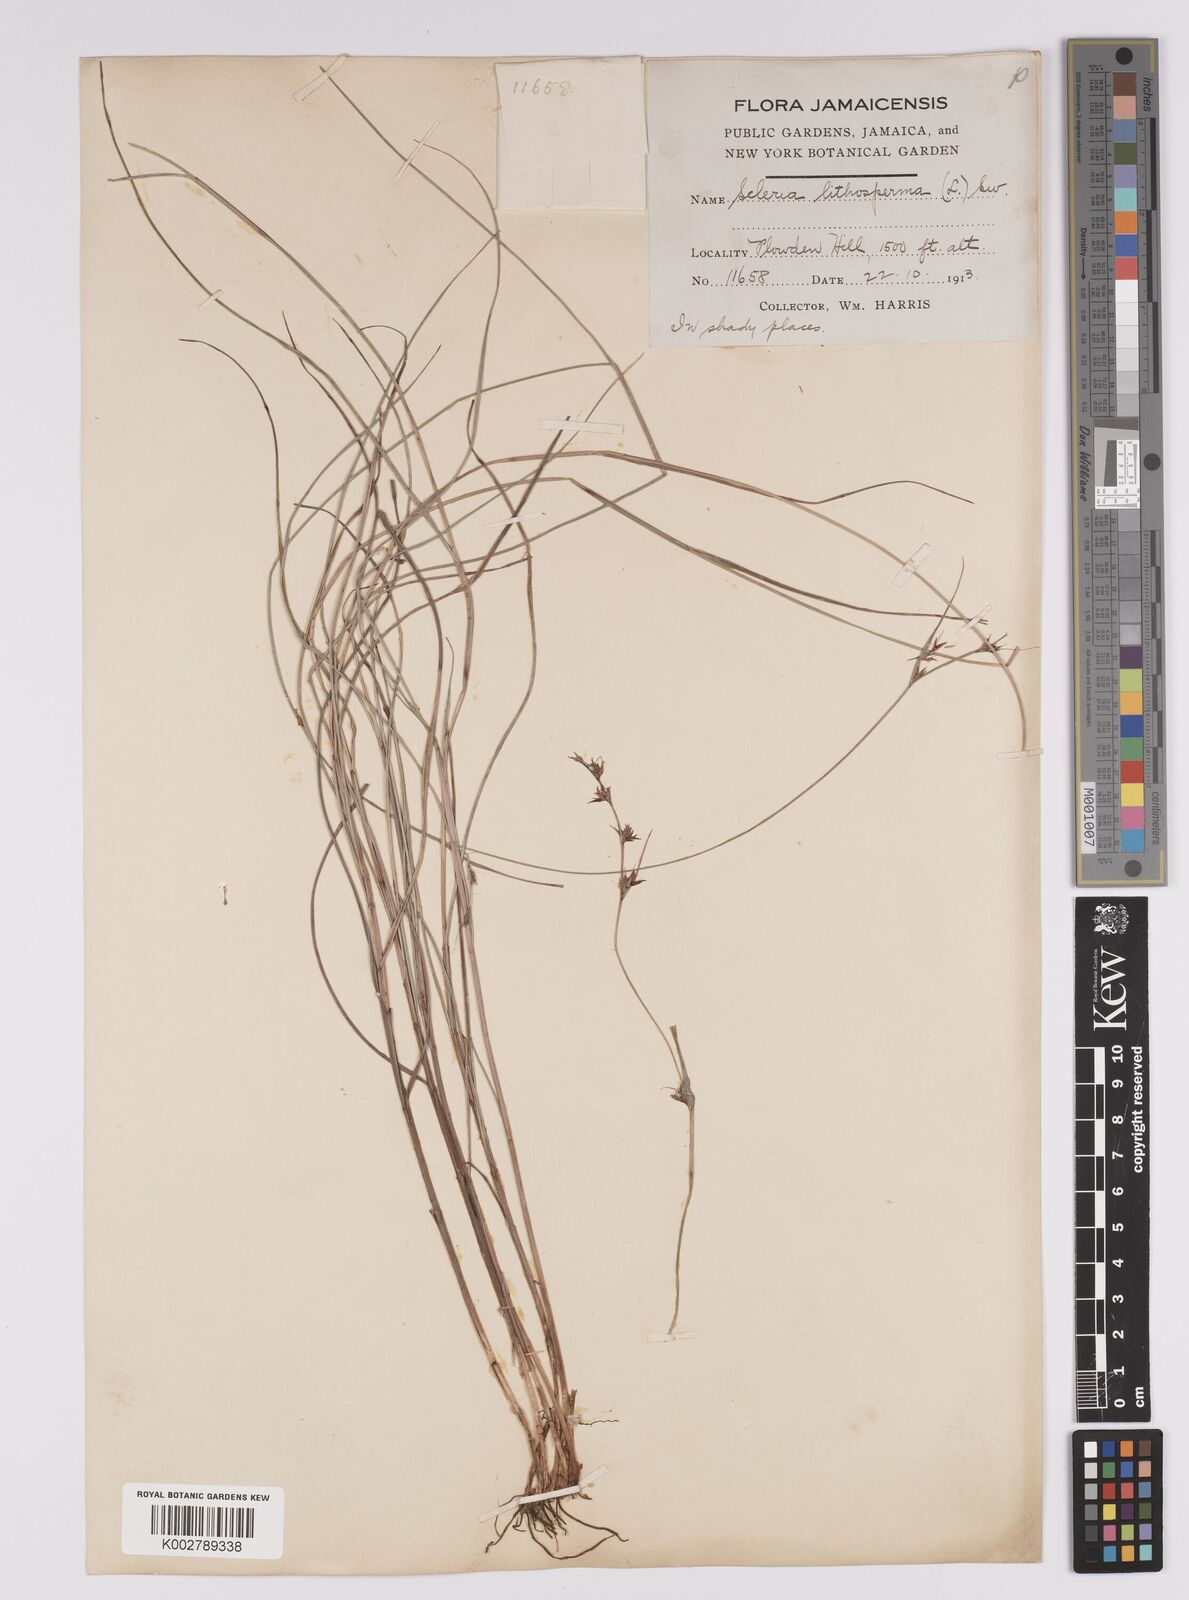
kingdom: Plantae
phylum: Tracheophyta
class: Liliopsida
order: Poales
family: Cyperaceae
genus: Scleria
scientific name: Scleria lithosperma
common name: Florida keys nut-rush
